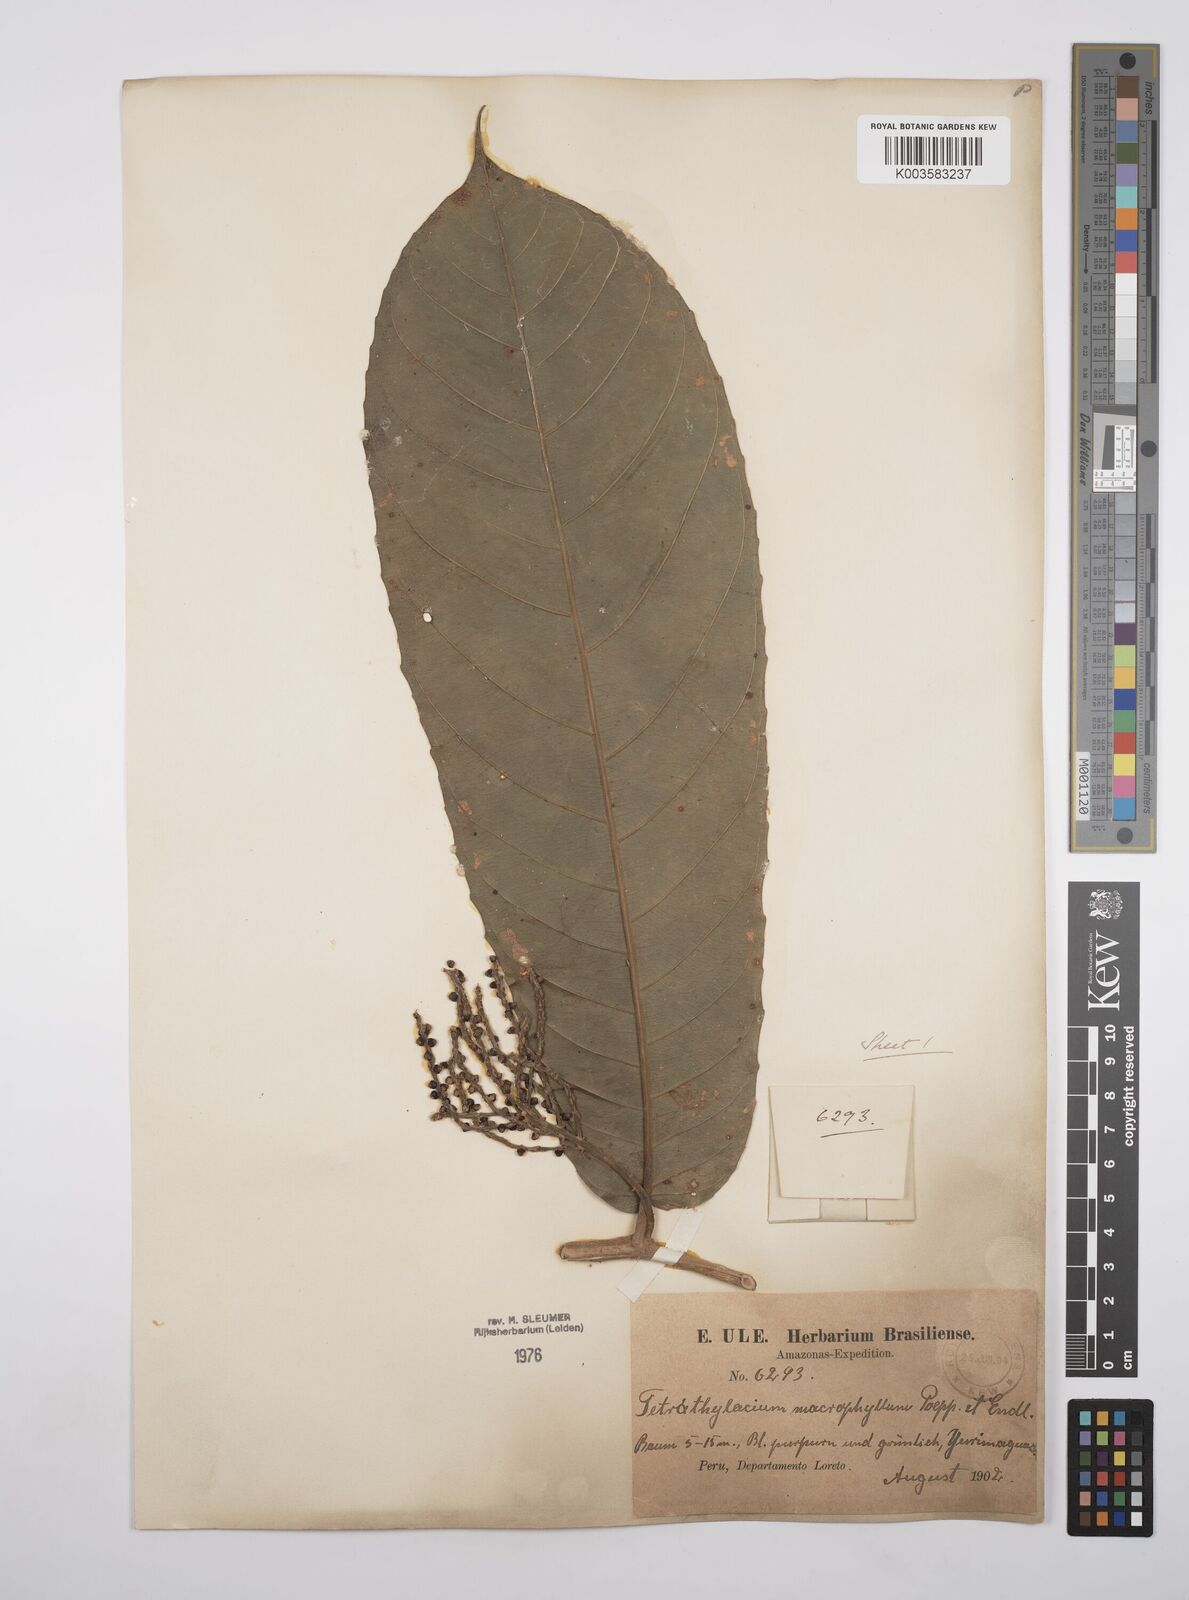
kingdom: Plantae
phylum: Tracheophyta
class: Magnoliopsida
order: Malpighiales
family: Salicaceae
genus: Tetrathylacium
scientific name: Tetrathylacium macrophyllum
